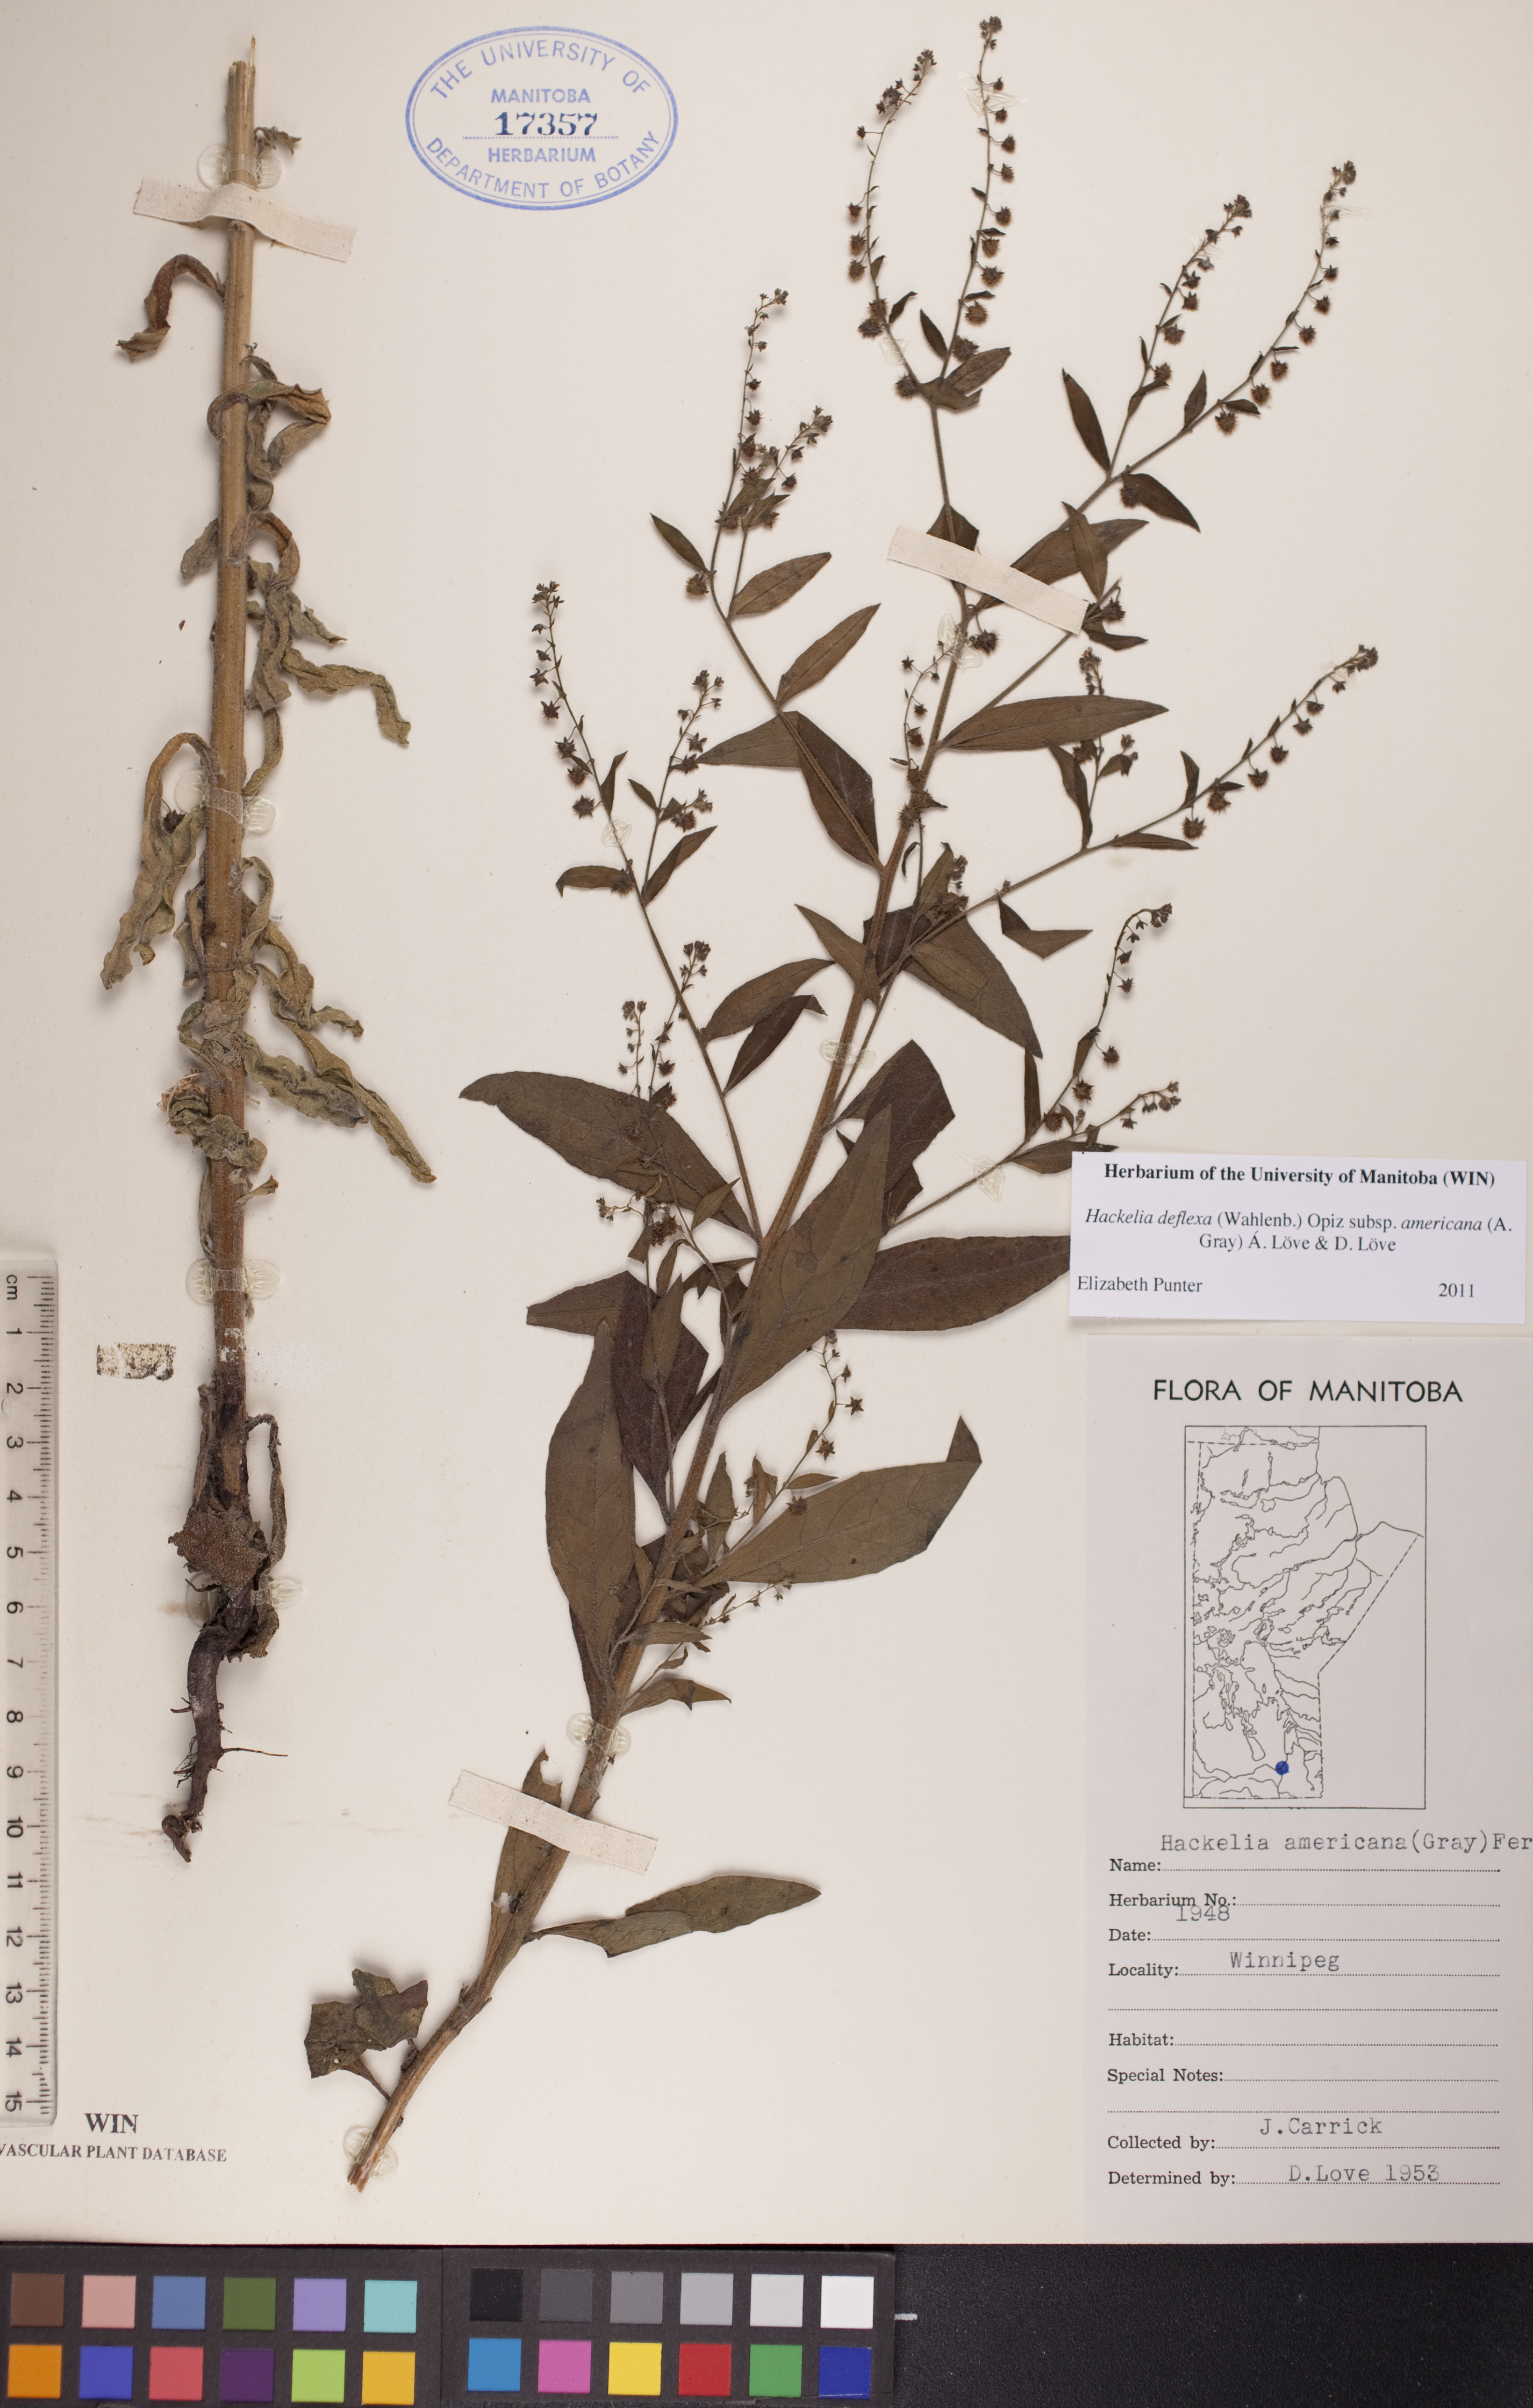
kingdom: Plantae
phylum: Tracheophyta
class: Magnoliopsida
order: Boraginales
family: Boraginaceae
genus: Hackelia
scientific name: Hackelia deflexa
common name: Nodding stickseed
